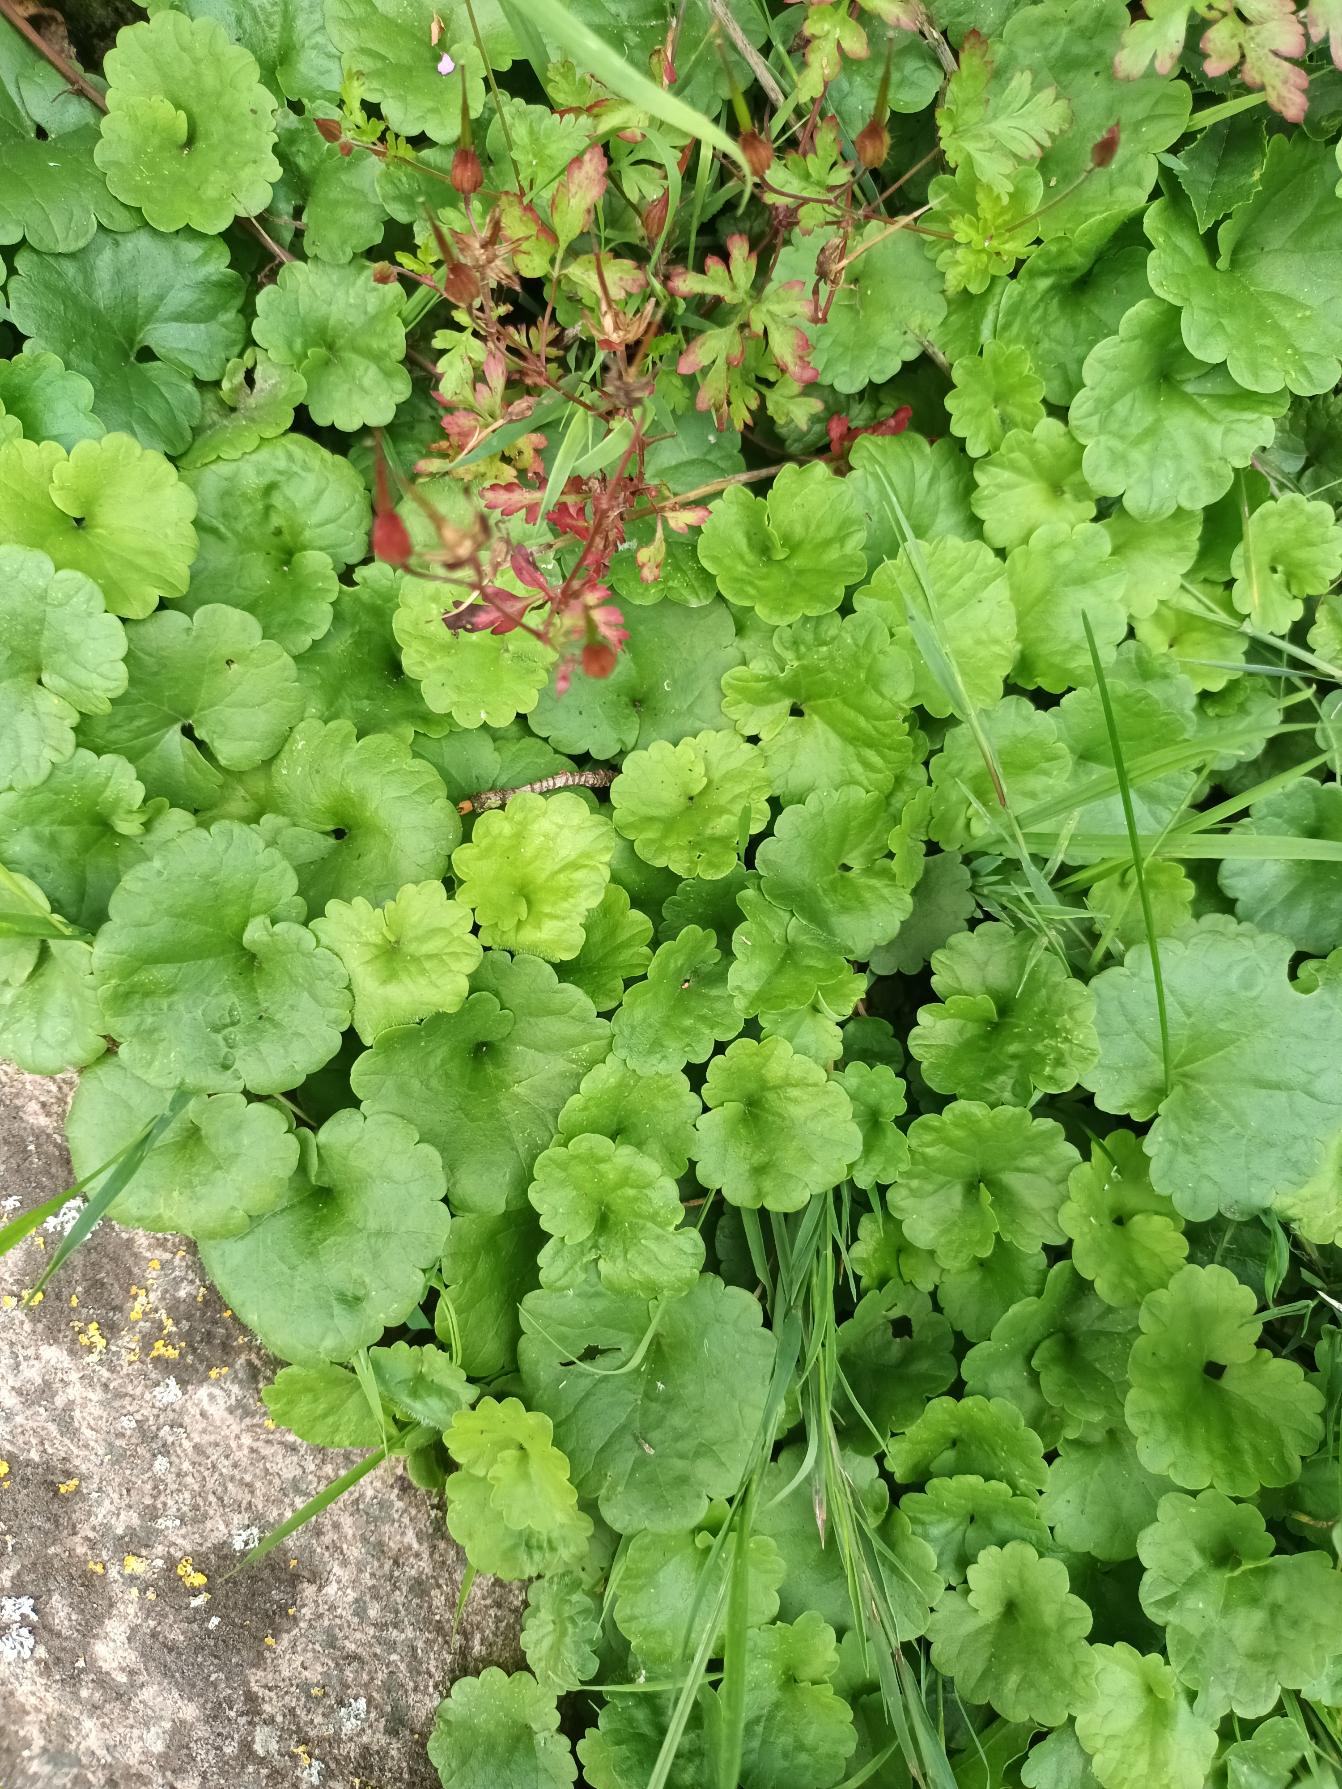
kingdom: Plantae
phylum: Tracheophyta
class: Magnoliopsida
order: Lamiales
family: Lamiaceae
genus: Glechoma
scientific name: Glechoma hederacea
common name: Korsknap
